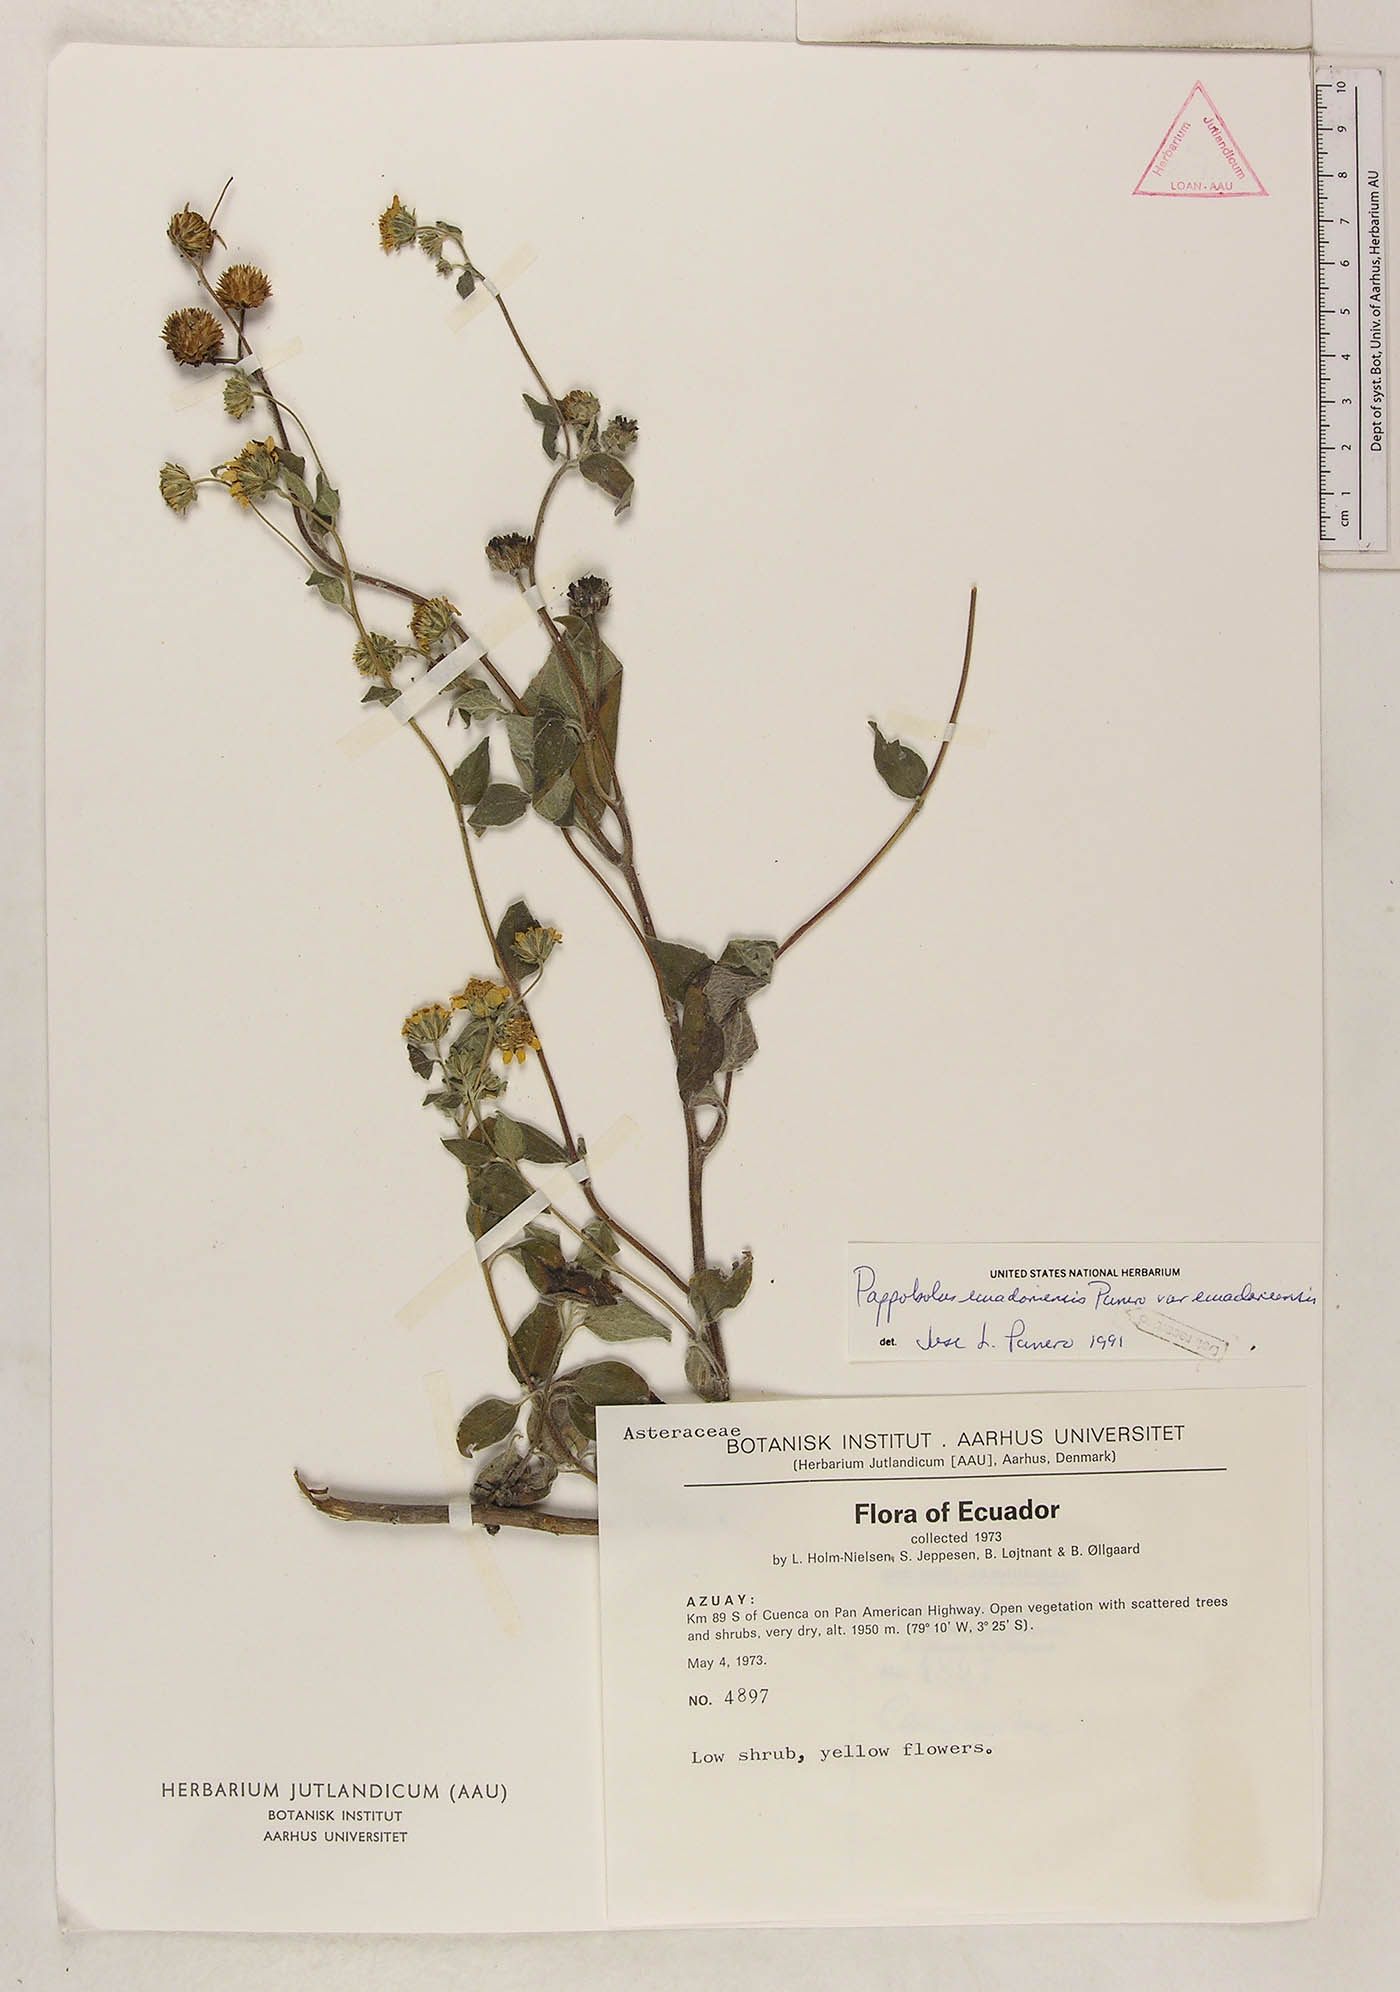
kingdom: Plantae
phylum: Tracheophyta
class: Magnoliopsida
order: Asterales
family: Asteraceae
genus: Pappobolus
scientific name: Pappobolus ecuadoriensis
